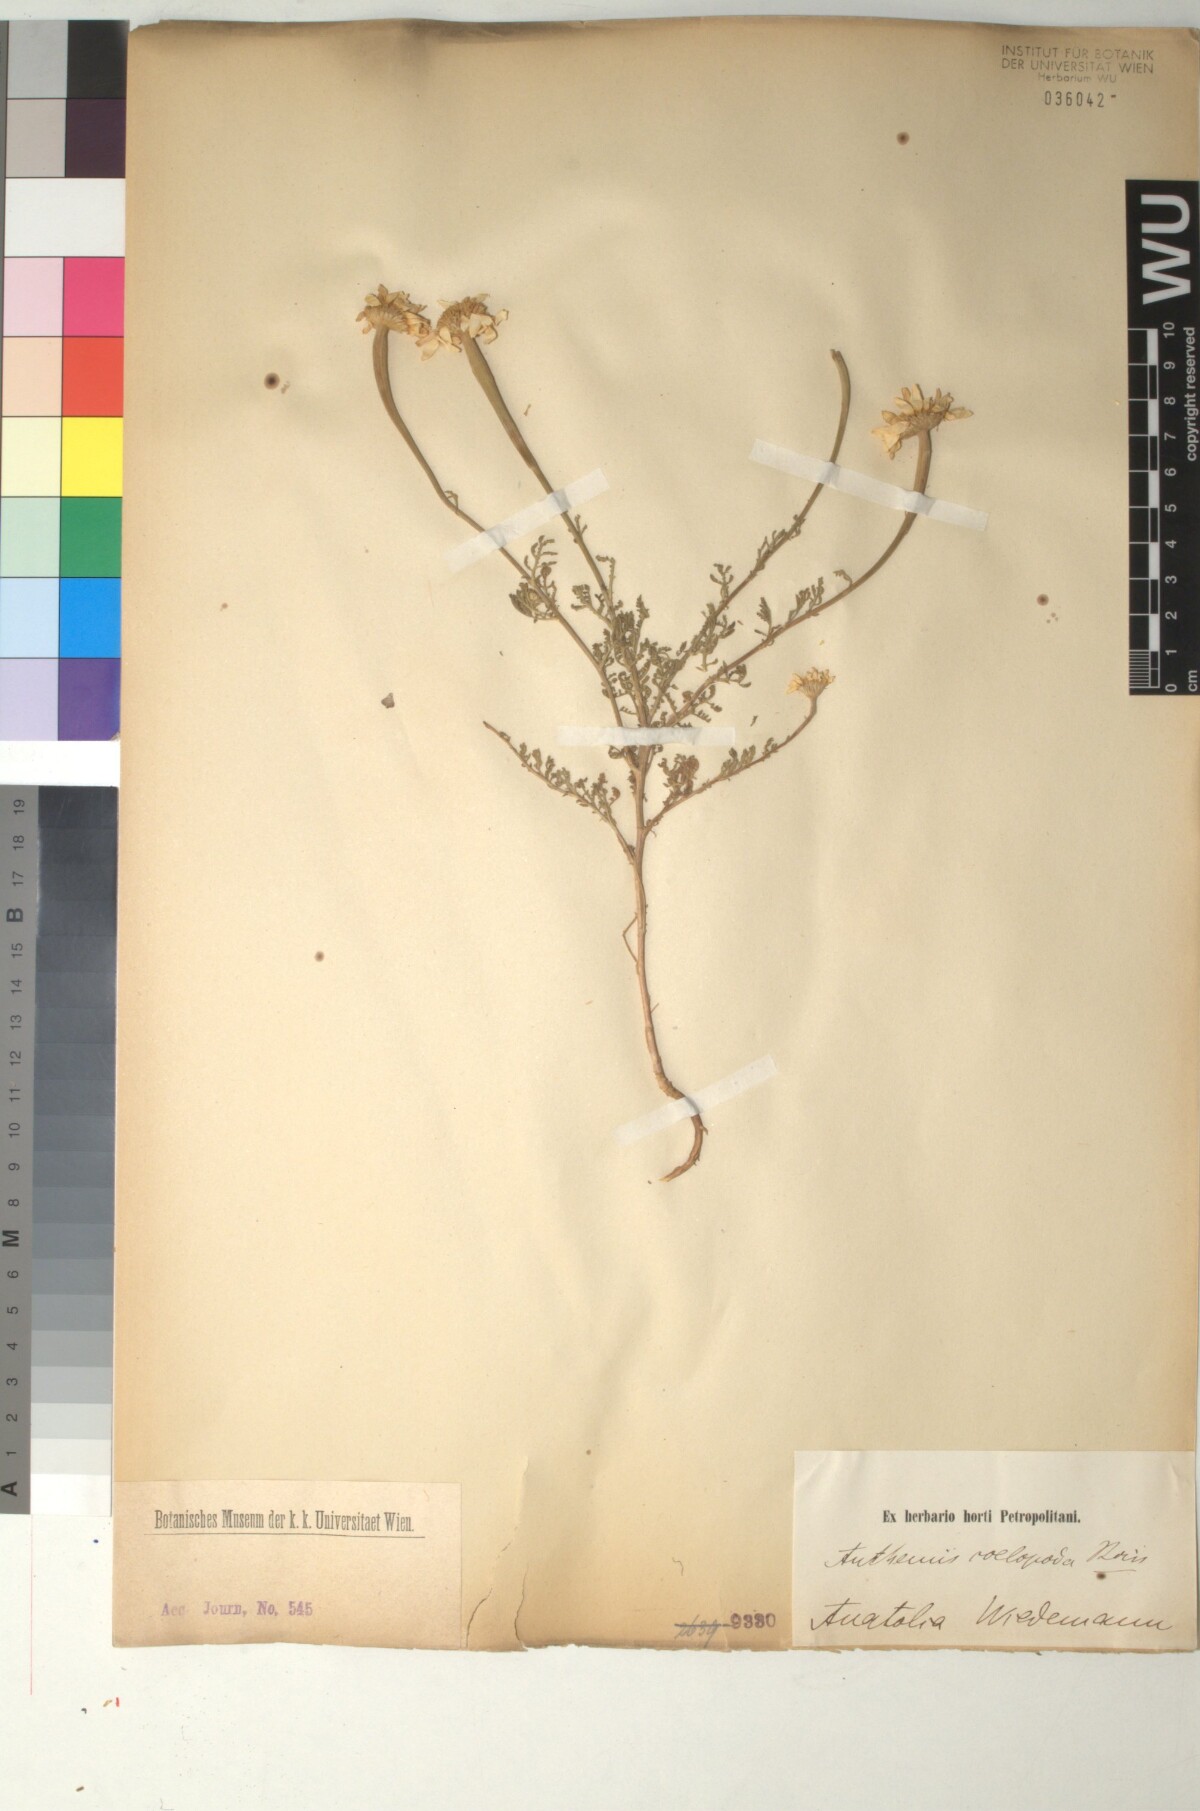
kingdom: Plantae
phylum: Tracheophyta
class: Magnoliopsida
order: Asterales
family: Asteraceae
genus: Cota
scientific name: Cota coelopoda
